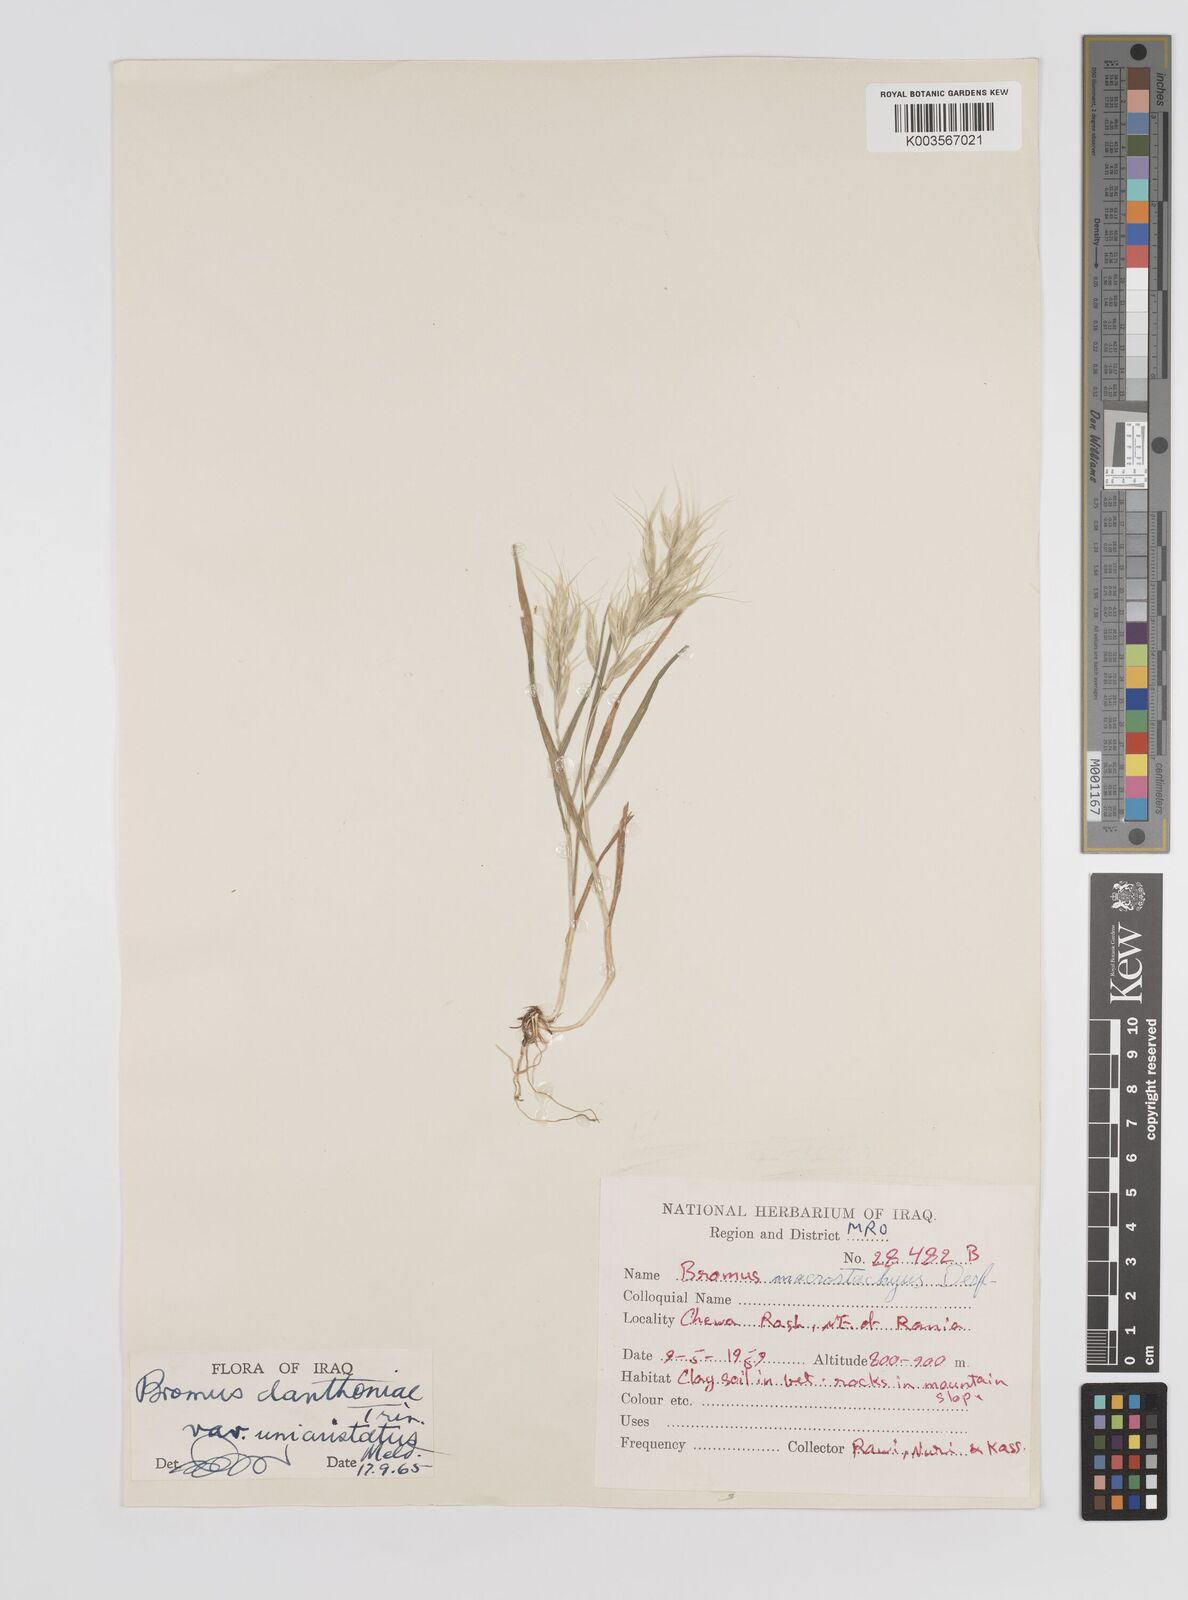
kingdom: Plantae
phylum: Tracheophyta
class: Liliopsida
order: Poales
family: Poaceae
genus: Bromus
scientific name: Bromus danthoniae
